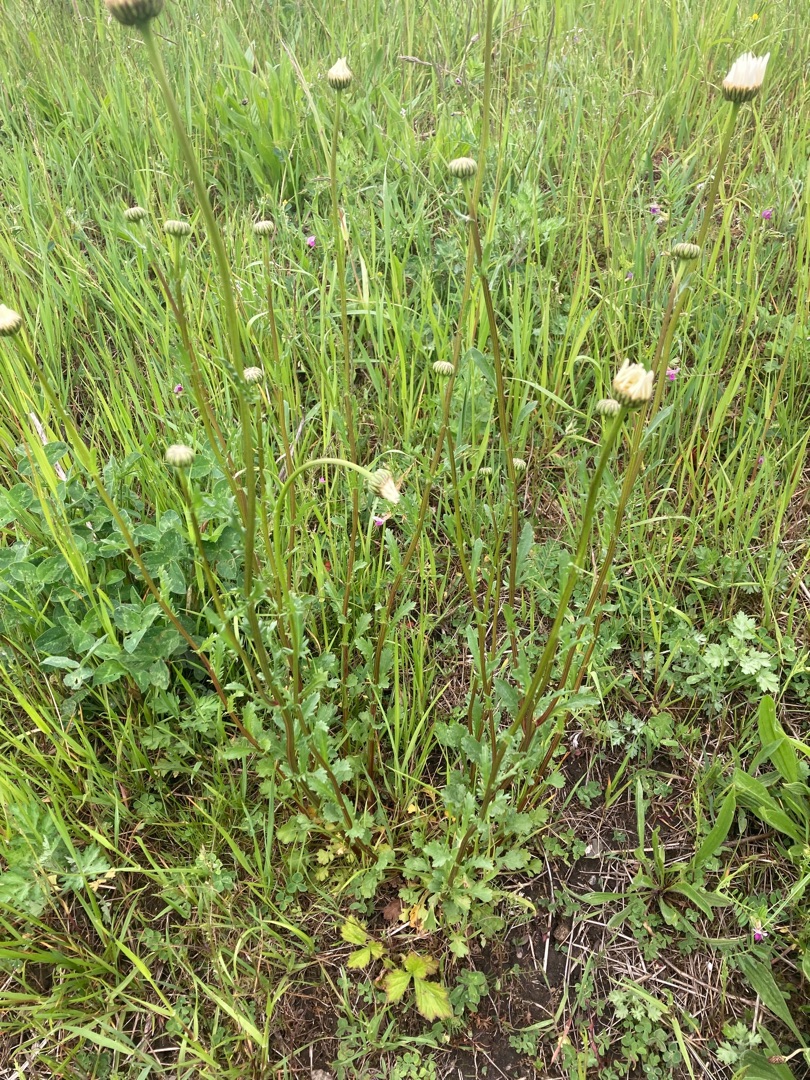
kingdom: Plantae
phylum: Tracheophyta
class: Magnoliopsida
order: Asterales
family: Asteraceae
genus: Leucanthemum
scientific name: Leucanthemum vulgare
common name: Hvid okseøje
